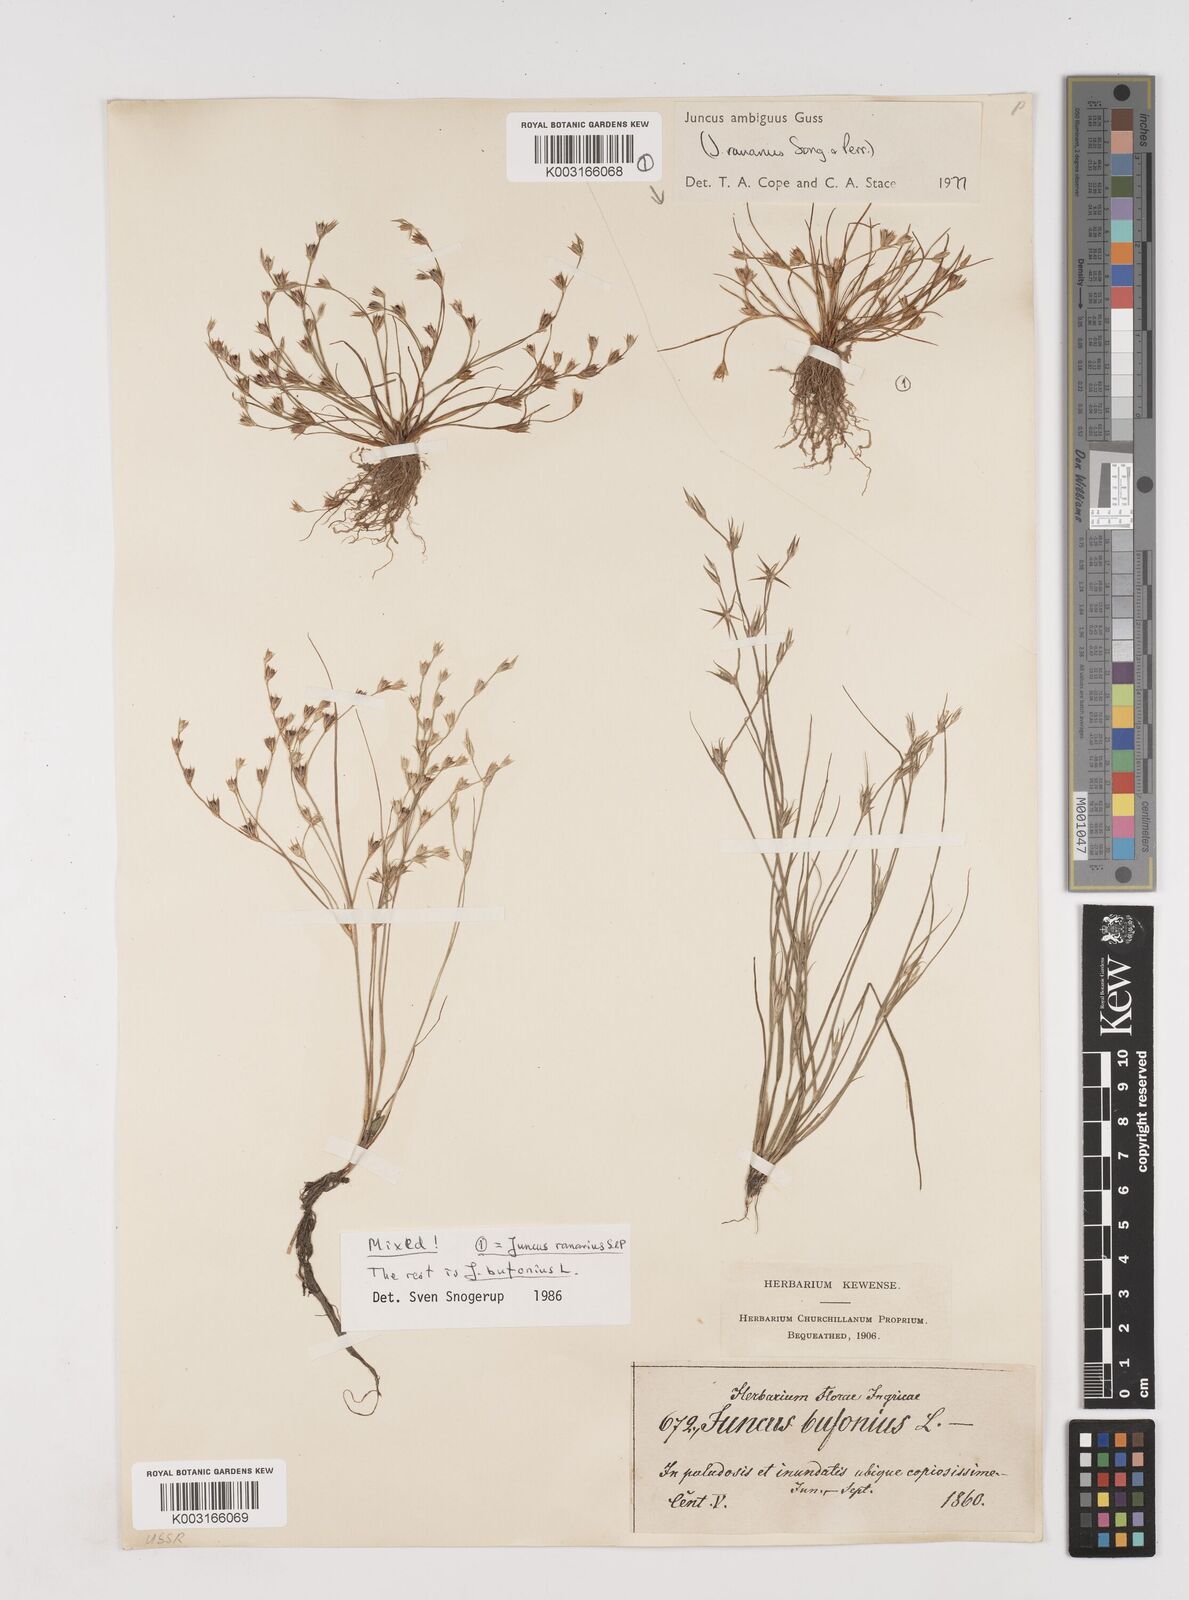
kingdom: Plantae
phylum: Tracheophyta
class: Liliopsida
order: Poales
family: Juncaceae
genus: Juncus
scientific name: Juncus hybridus
